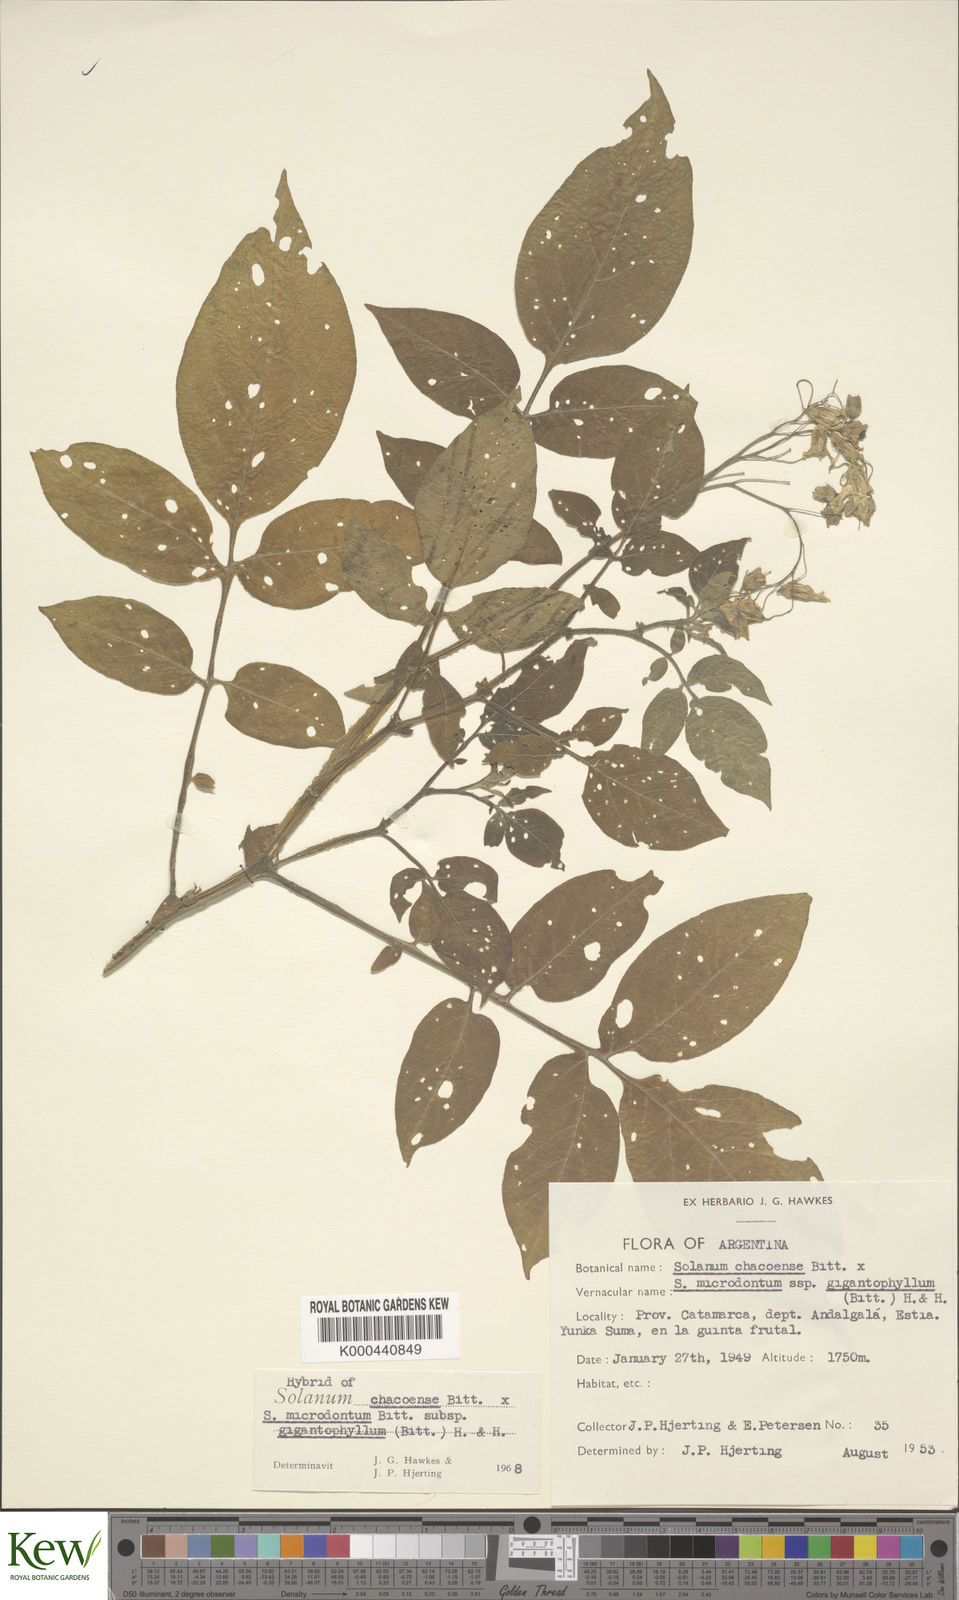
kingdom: Plantae
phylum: Tracheophyta
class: Magnoliopsida
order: Solanales
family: Solanaceae
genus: Solanum
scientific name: Solanum microdontum
